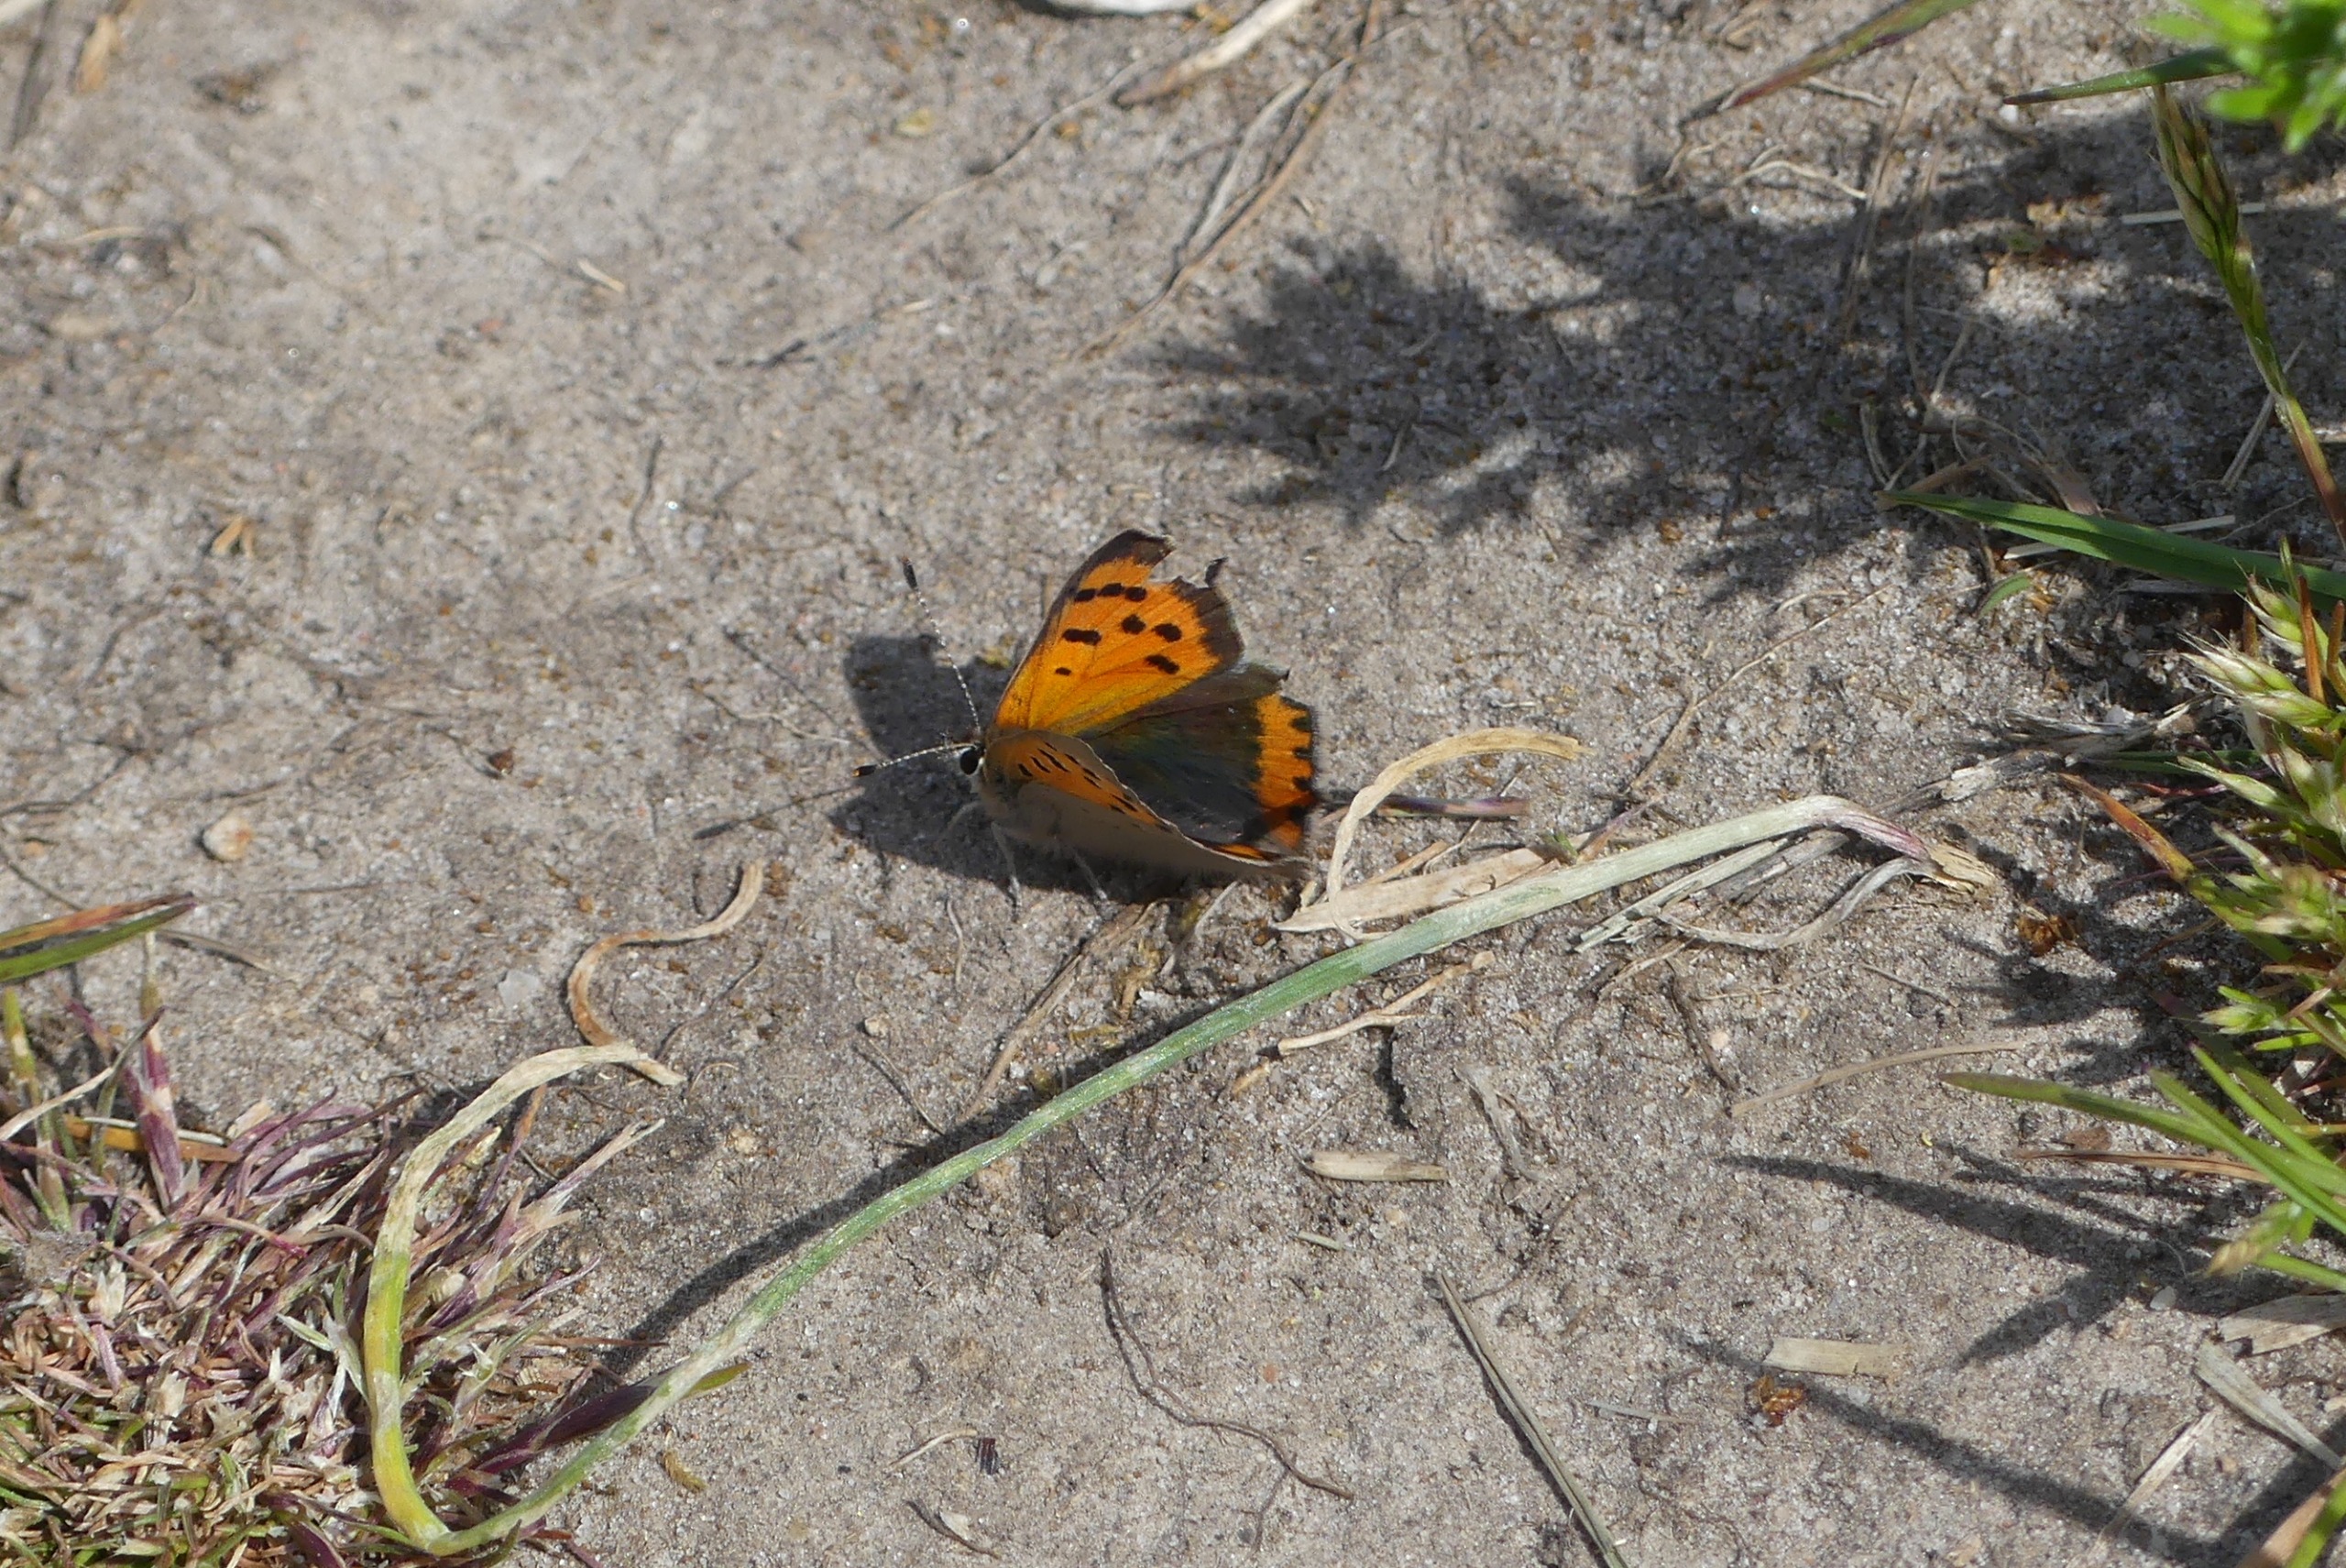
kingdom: Animalia
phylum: Arthropoda
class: Insecta
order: Lepidoptera
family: Lycaenidae
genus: Lycaena
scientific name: Lycaena phlaeas
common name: Lille ildfugl
